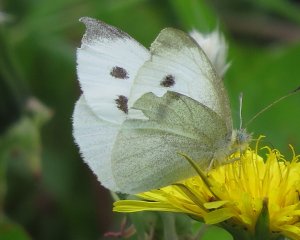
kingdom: Animalia
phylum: Arthropoda
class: Insecta
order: Lepidoptera
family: Pieridae
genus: Pieris
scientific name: Pieris rapae
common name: Cabbage White
